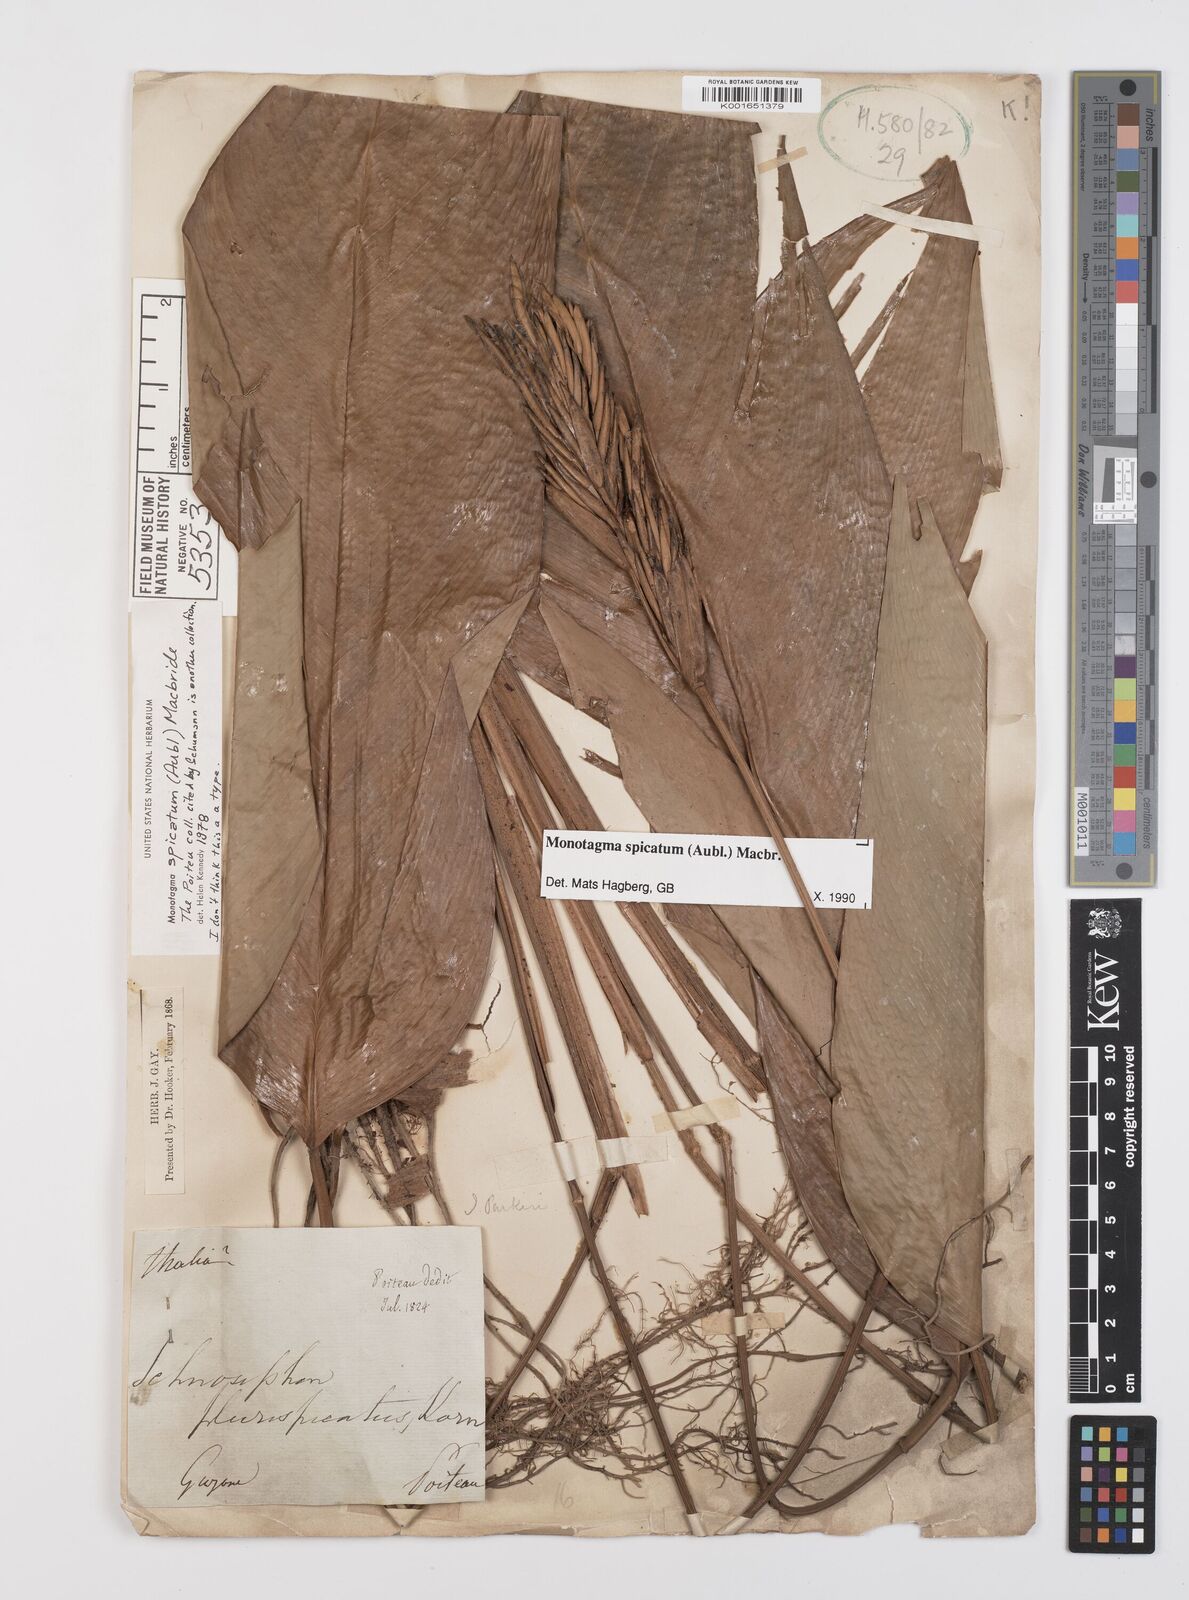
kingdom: Plantae
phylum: Tracheophyta
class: Liliopsida
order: Zingiberales
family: Marantaceae
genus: Monotagma
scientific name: Monotagma spicatum
